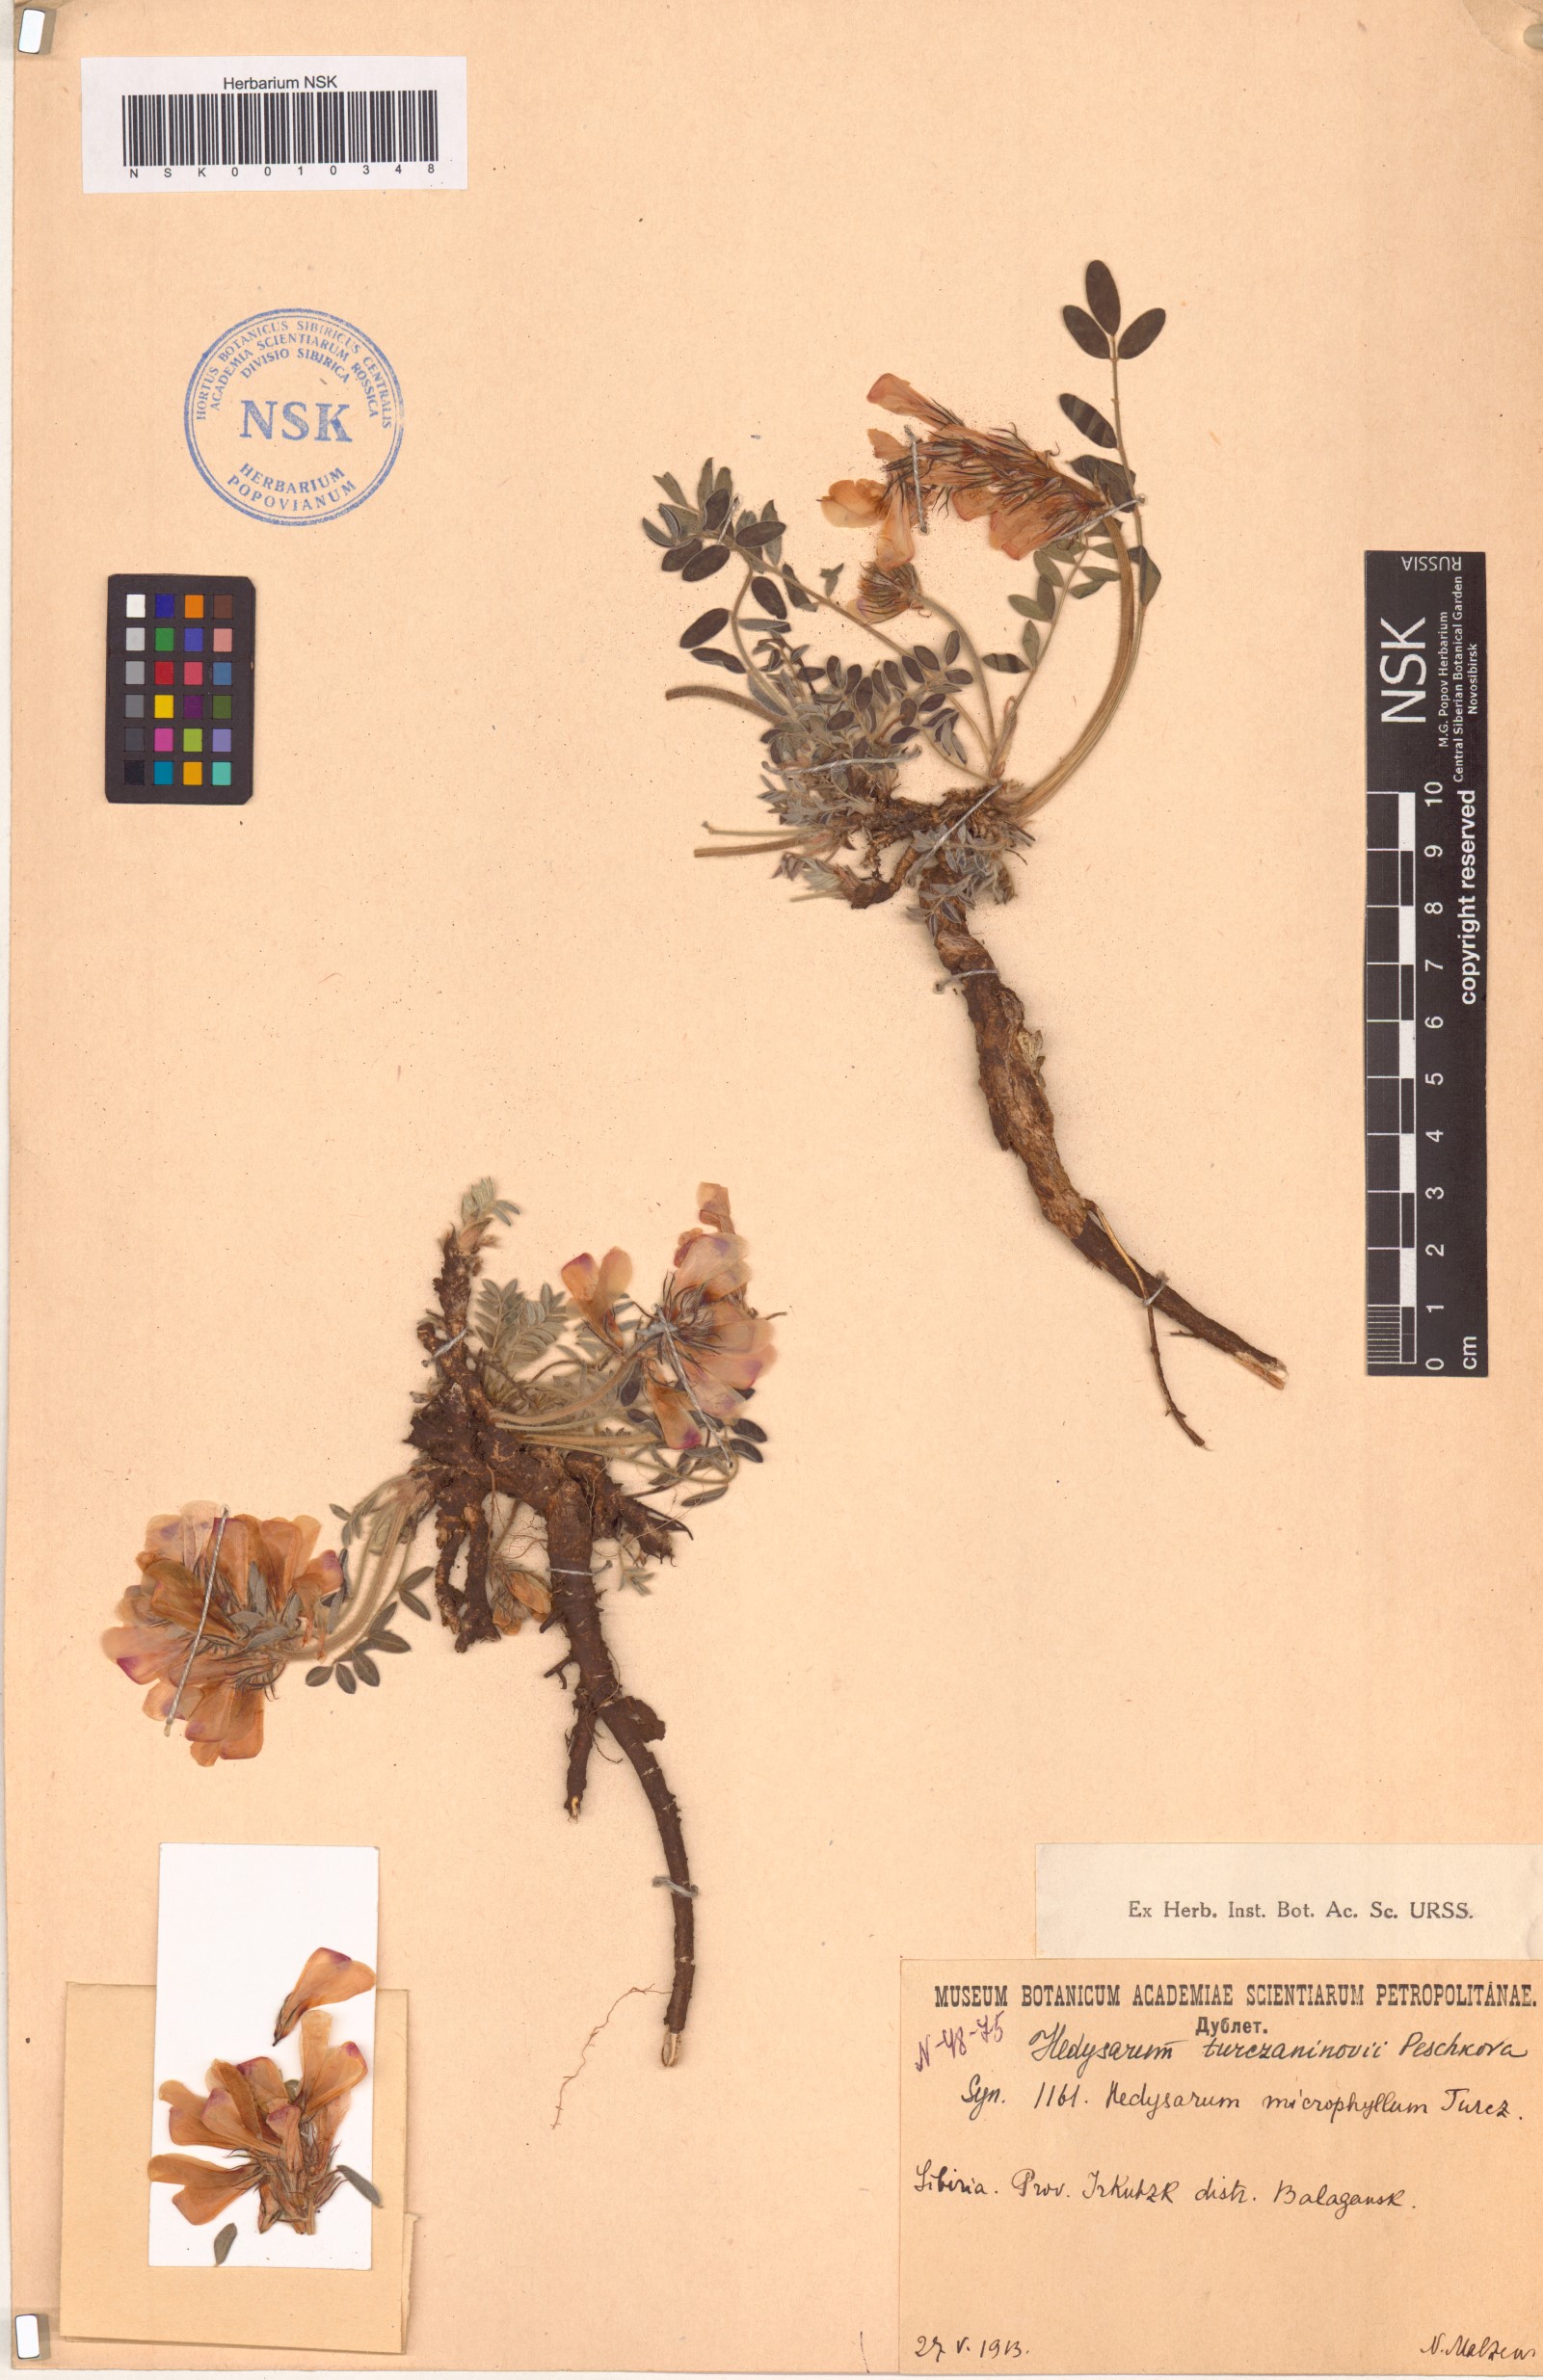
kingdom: Plantae
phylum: Tracheophyta
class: Magnoliopsida
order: Fabales
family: Fabaceae
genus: Hedysarum
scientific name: Hedysarum turczaninovii
